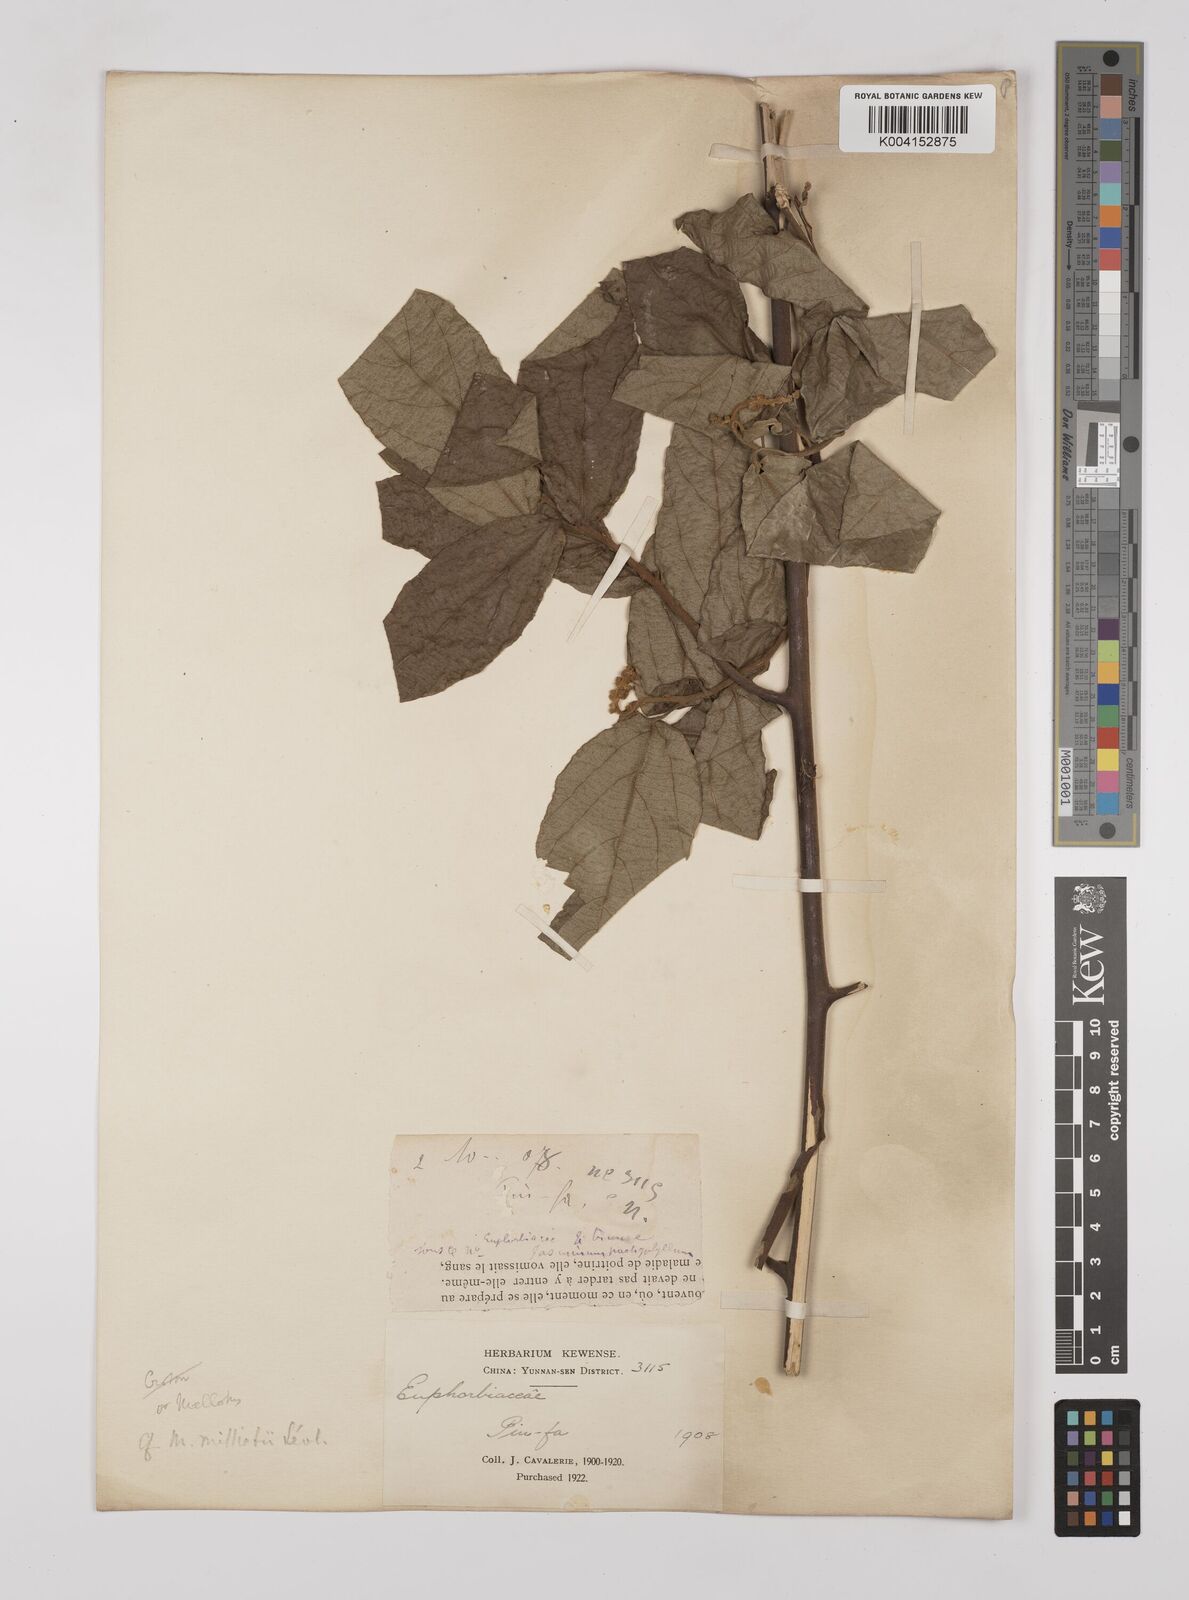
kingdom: Plantae
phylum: Tracheophyta
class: Magnoliopsida
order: Malpighiales
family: Euphorbiaceae
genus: Mallotus
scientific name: Mallotus millietii
